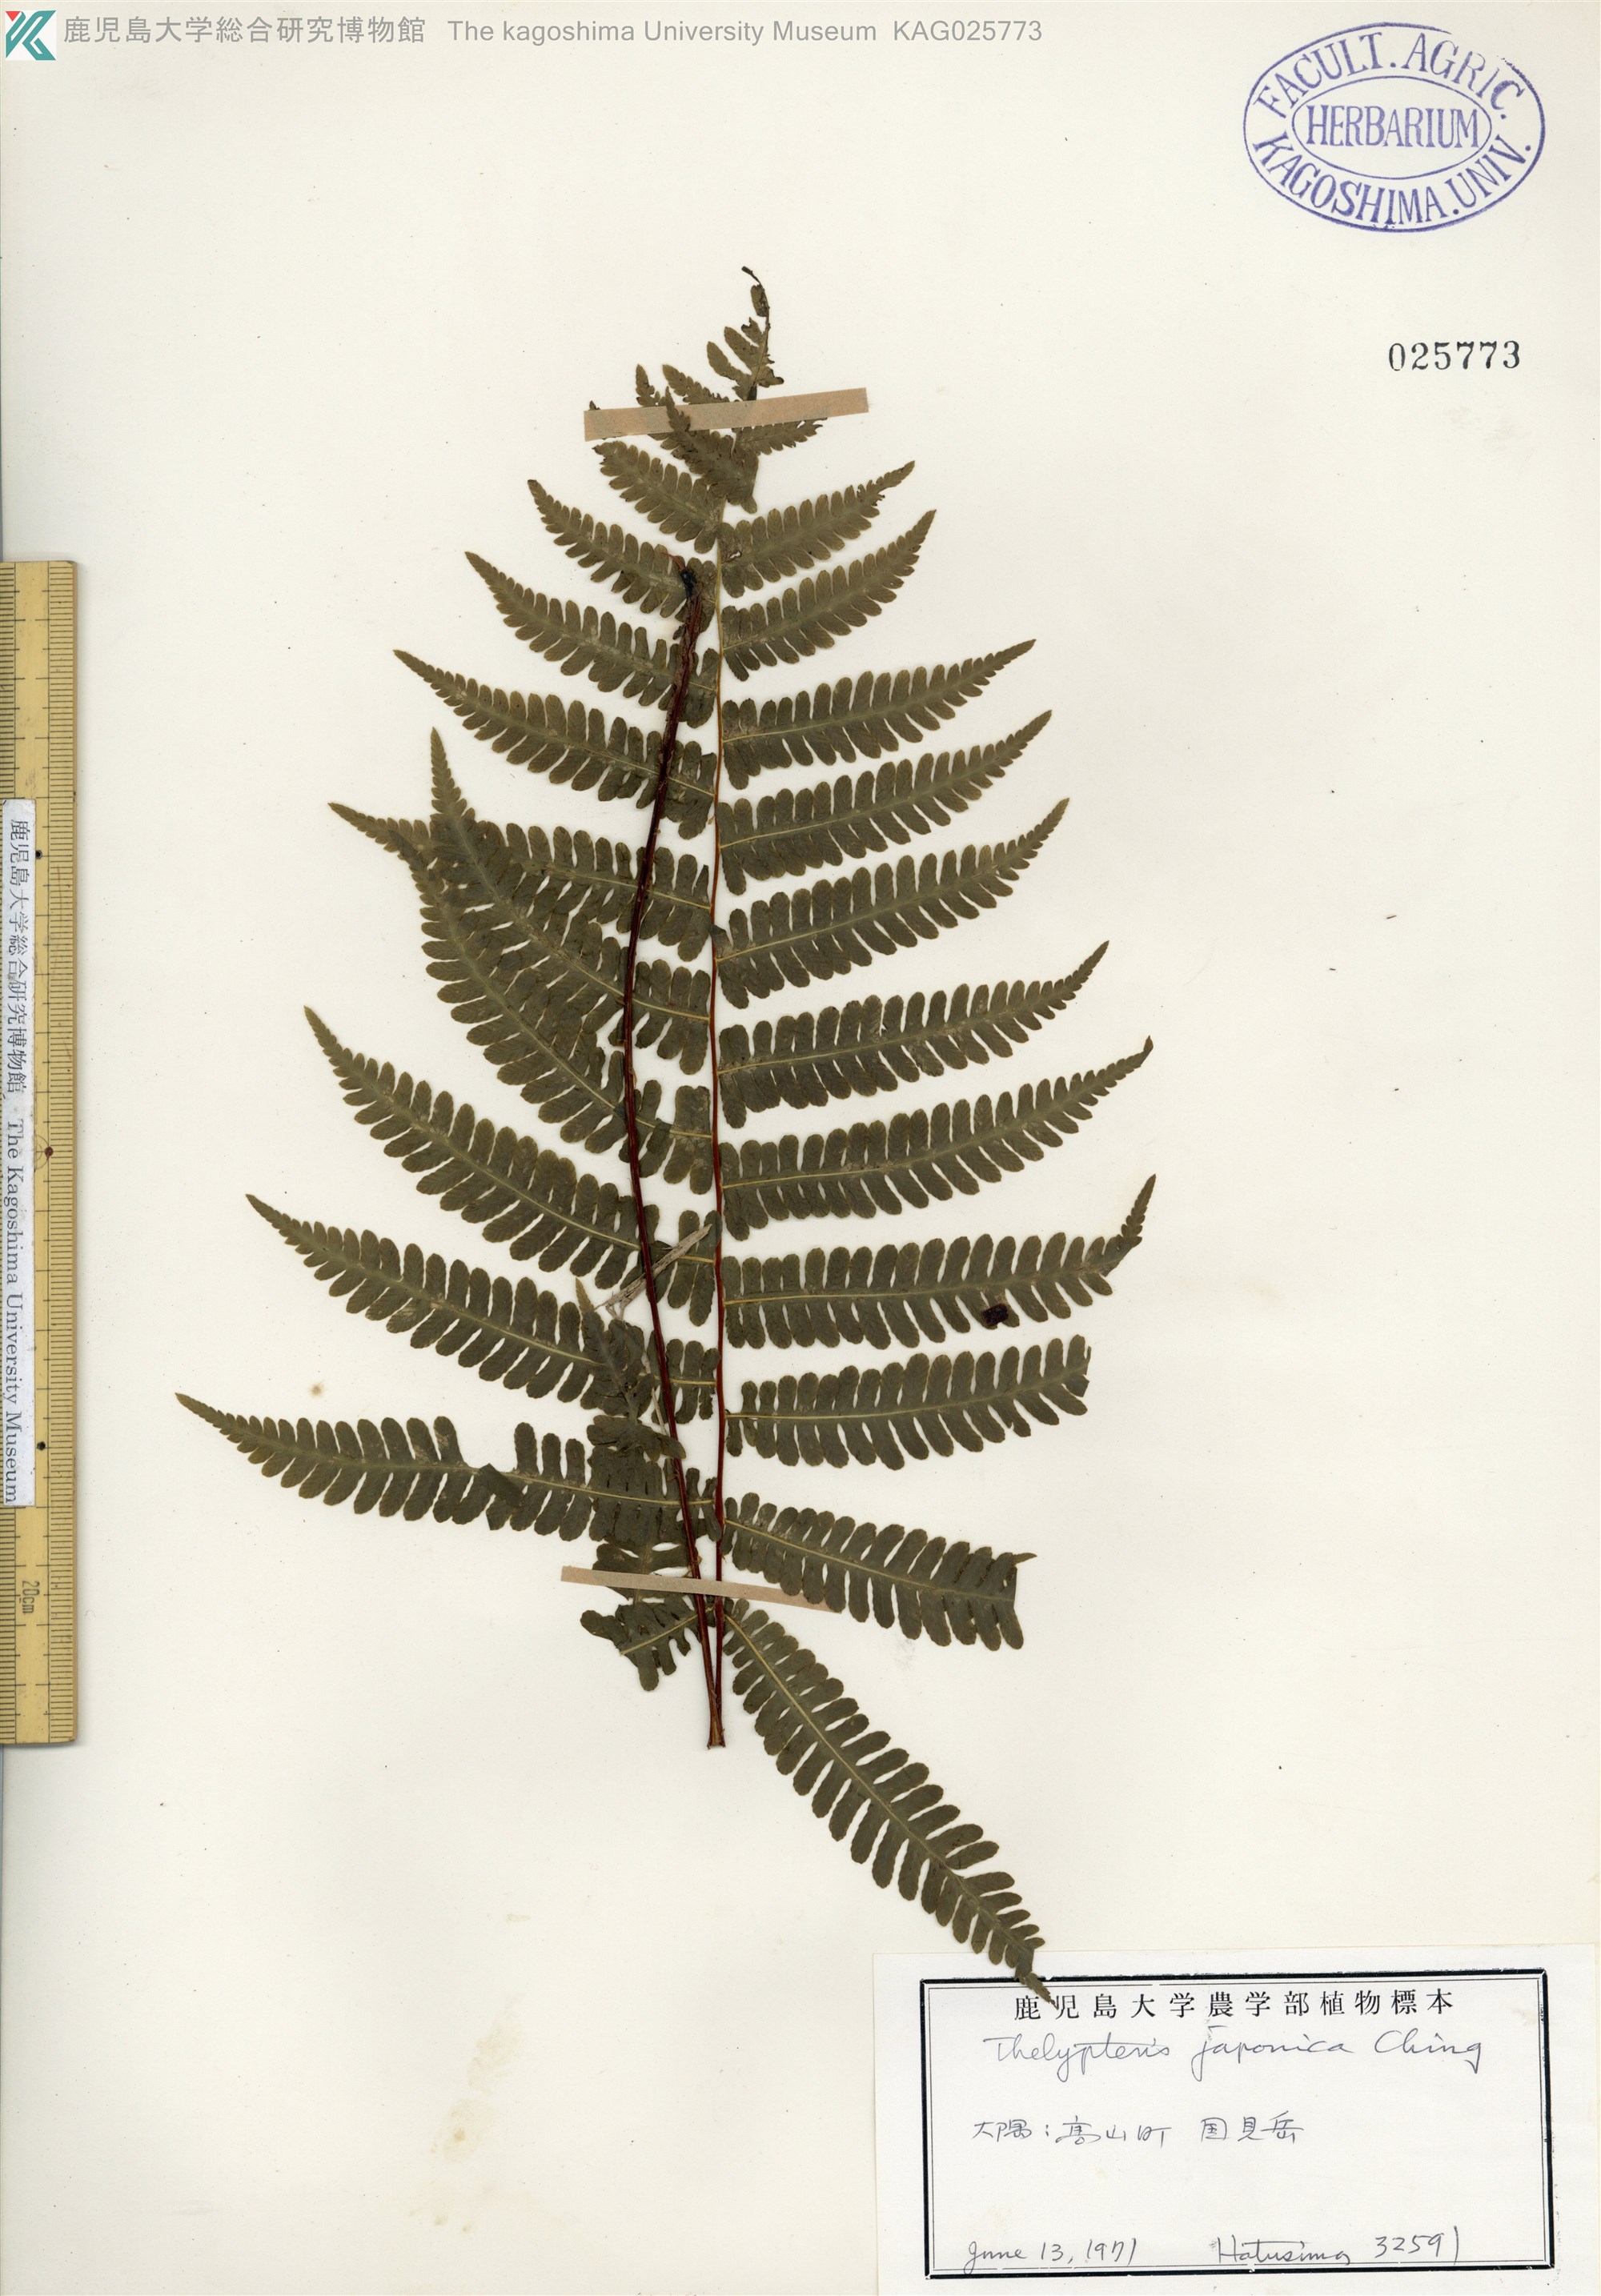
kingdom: Plantae
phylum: Tracheophyta
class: Polypodiopsida
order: Polypodiales
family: Thelypteridaceae
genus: Coryphopteris
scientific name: Coryphopteris japonica
